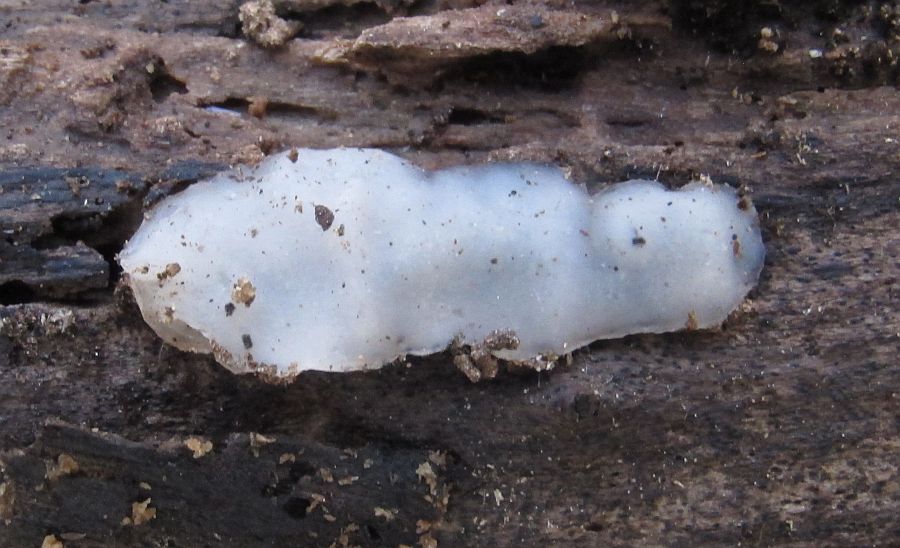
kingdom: Fungi
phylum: Basidiomycota
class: Agaricomycetes
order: Auriculariales
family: Auriculariaceae
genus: Exidia
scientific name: Exidia thuretiana
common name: hvidlig bævretop
